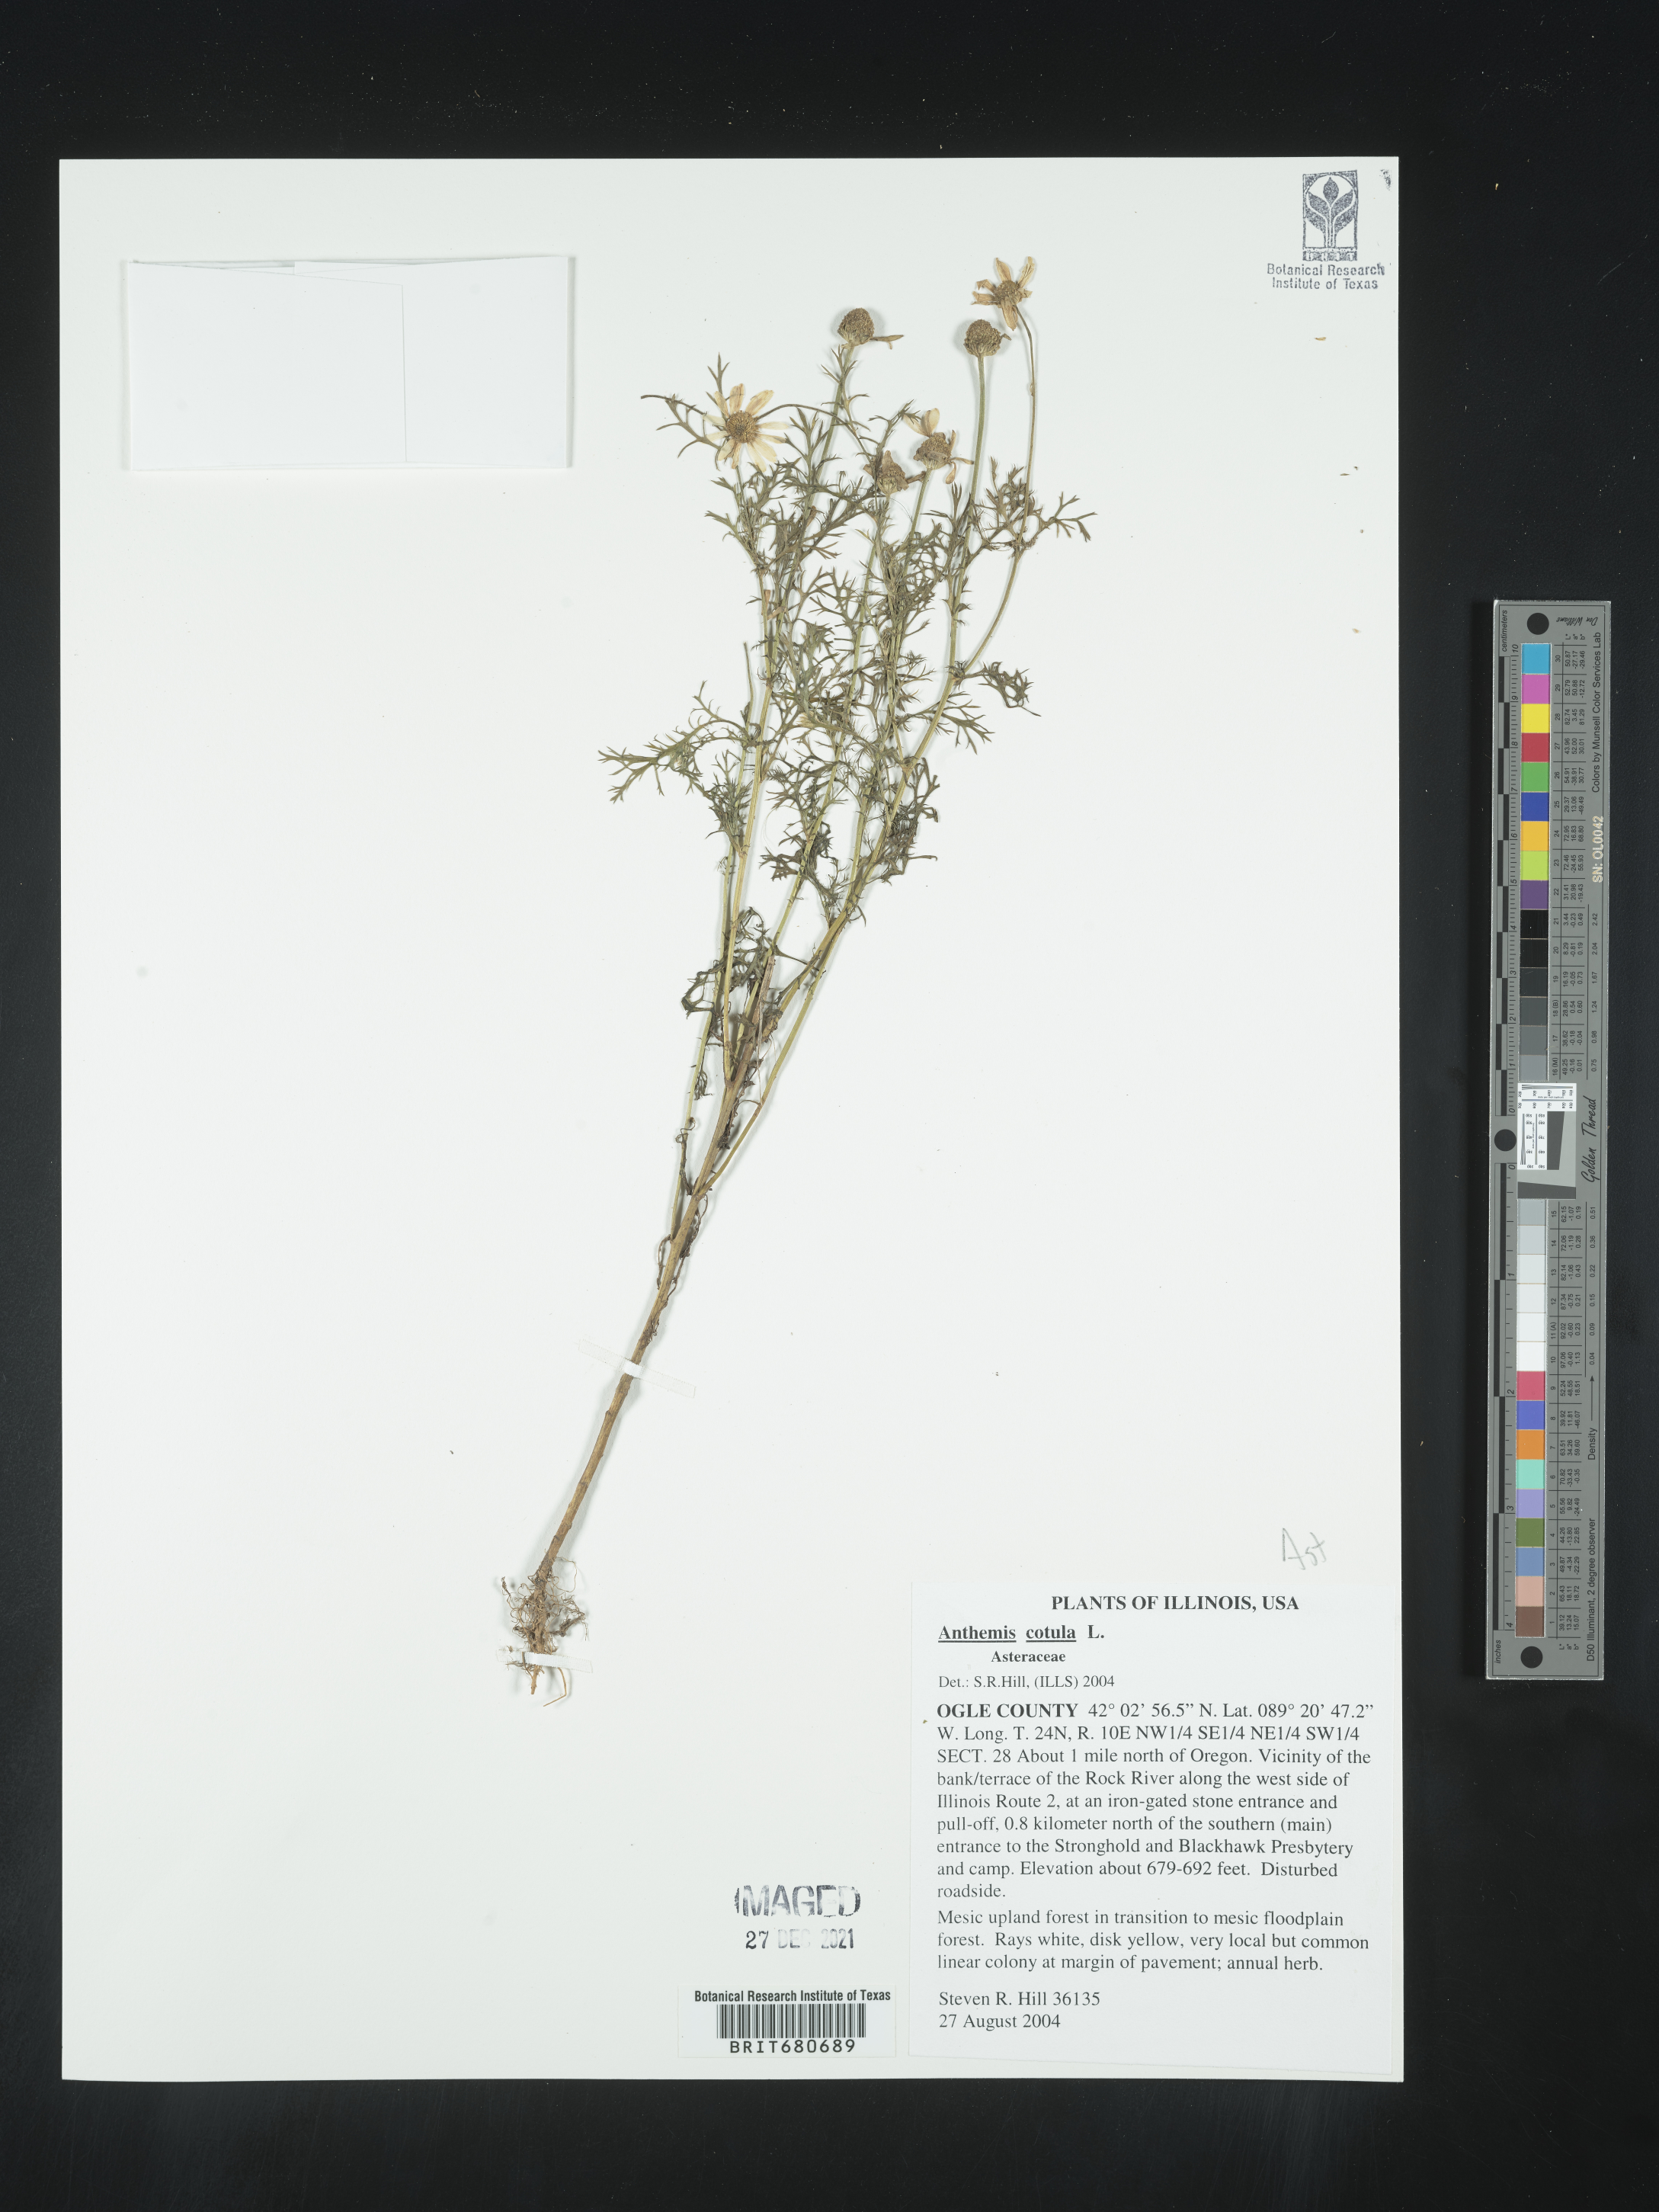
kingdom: Plantae
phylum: Tracheophyta
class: Magnoliopsida
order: Asterales
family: Asteraceae
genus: Anthemis
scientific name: Anthemis cotula
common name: Stinking chamomile
